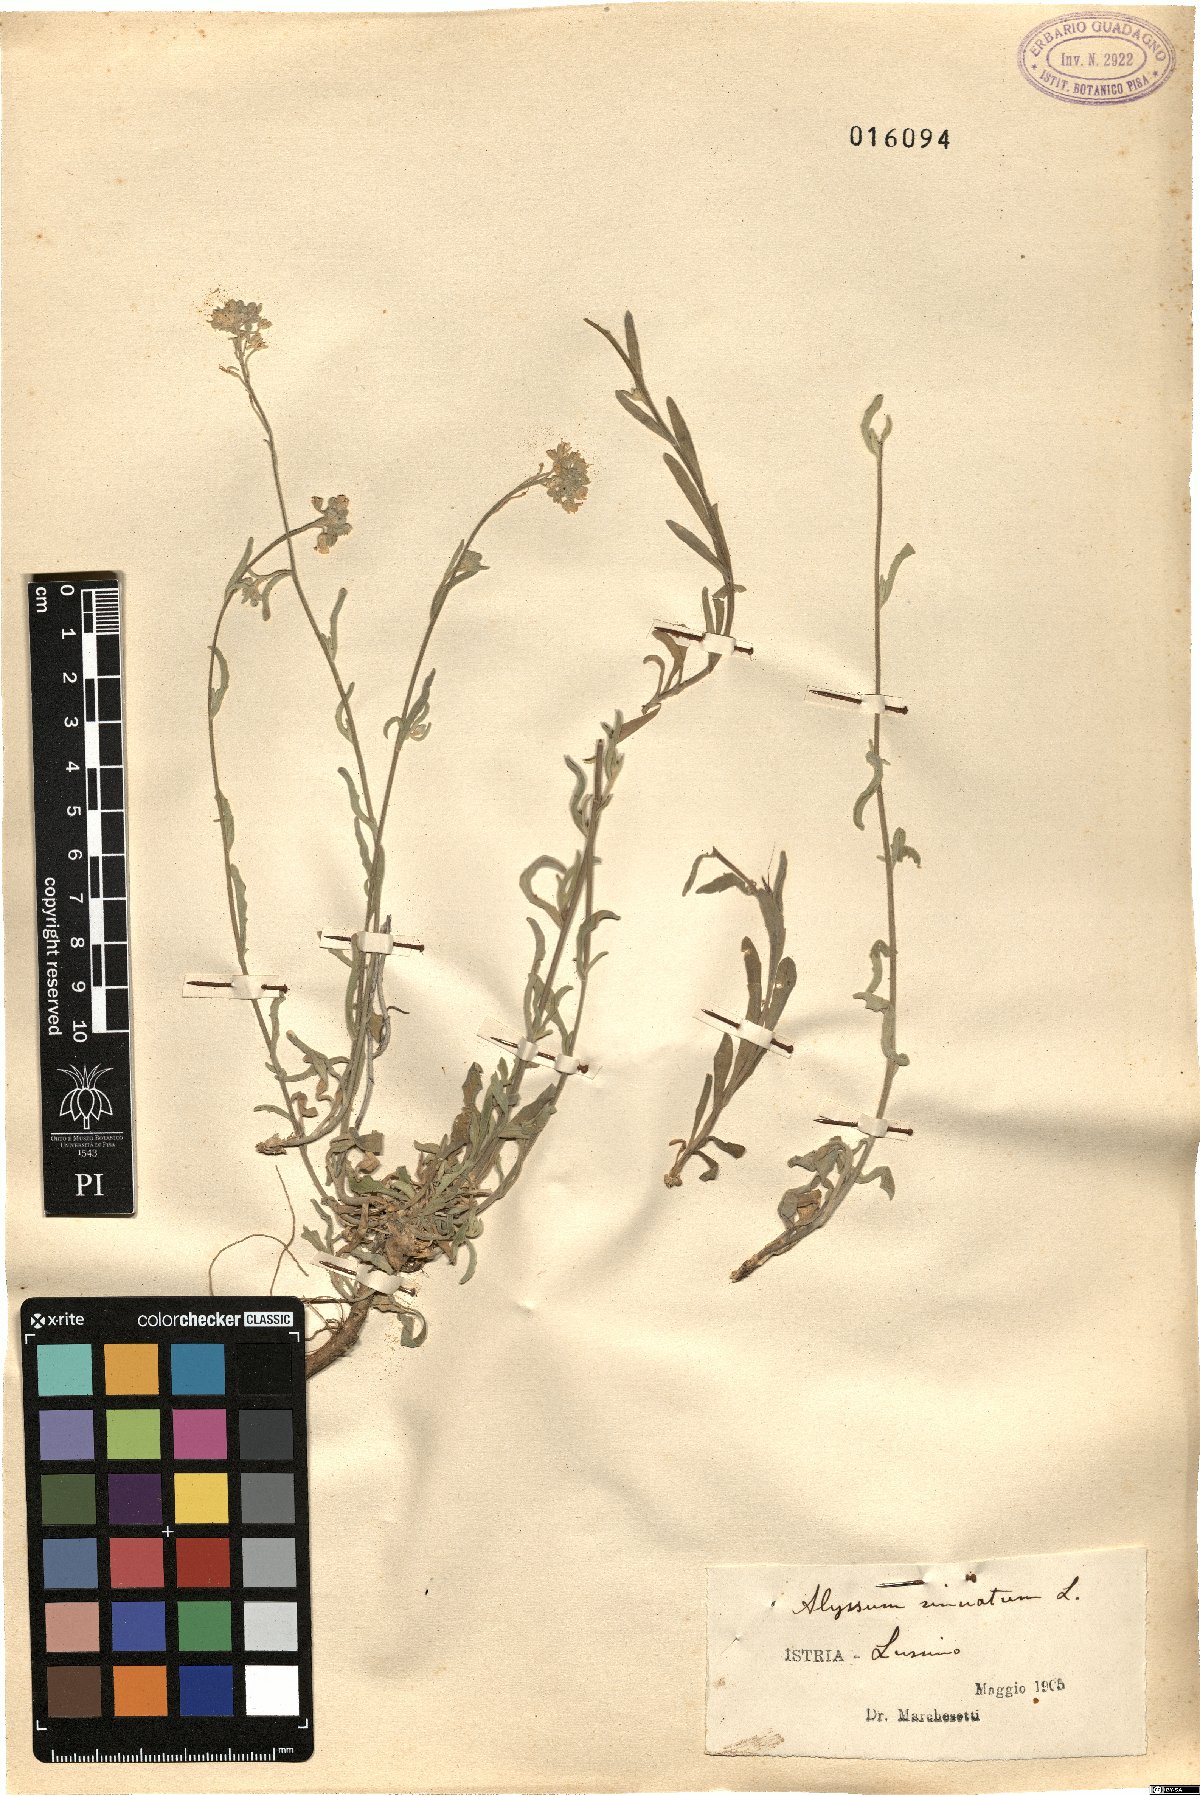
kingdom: Plantae
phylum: Tracheophyta
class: Magnoliopsida
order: Brassicales
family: Brassicaceae
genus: Aurinia
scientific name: Aurinia sinuata
